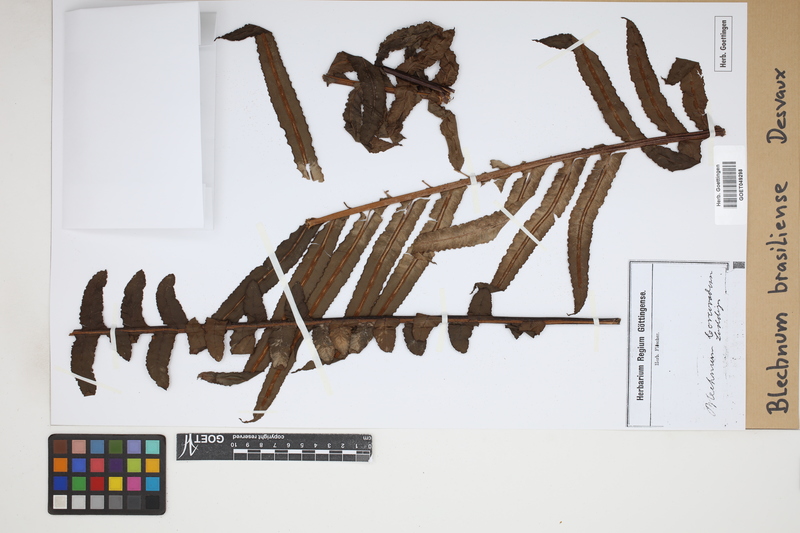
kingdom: Plantae
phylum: Tracheophyta
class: Polypodiopsida
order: Polypodiales
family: Blechnaceae
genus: Neoblechnum
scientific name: Neoblechnum brasiliense
